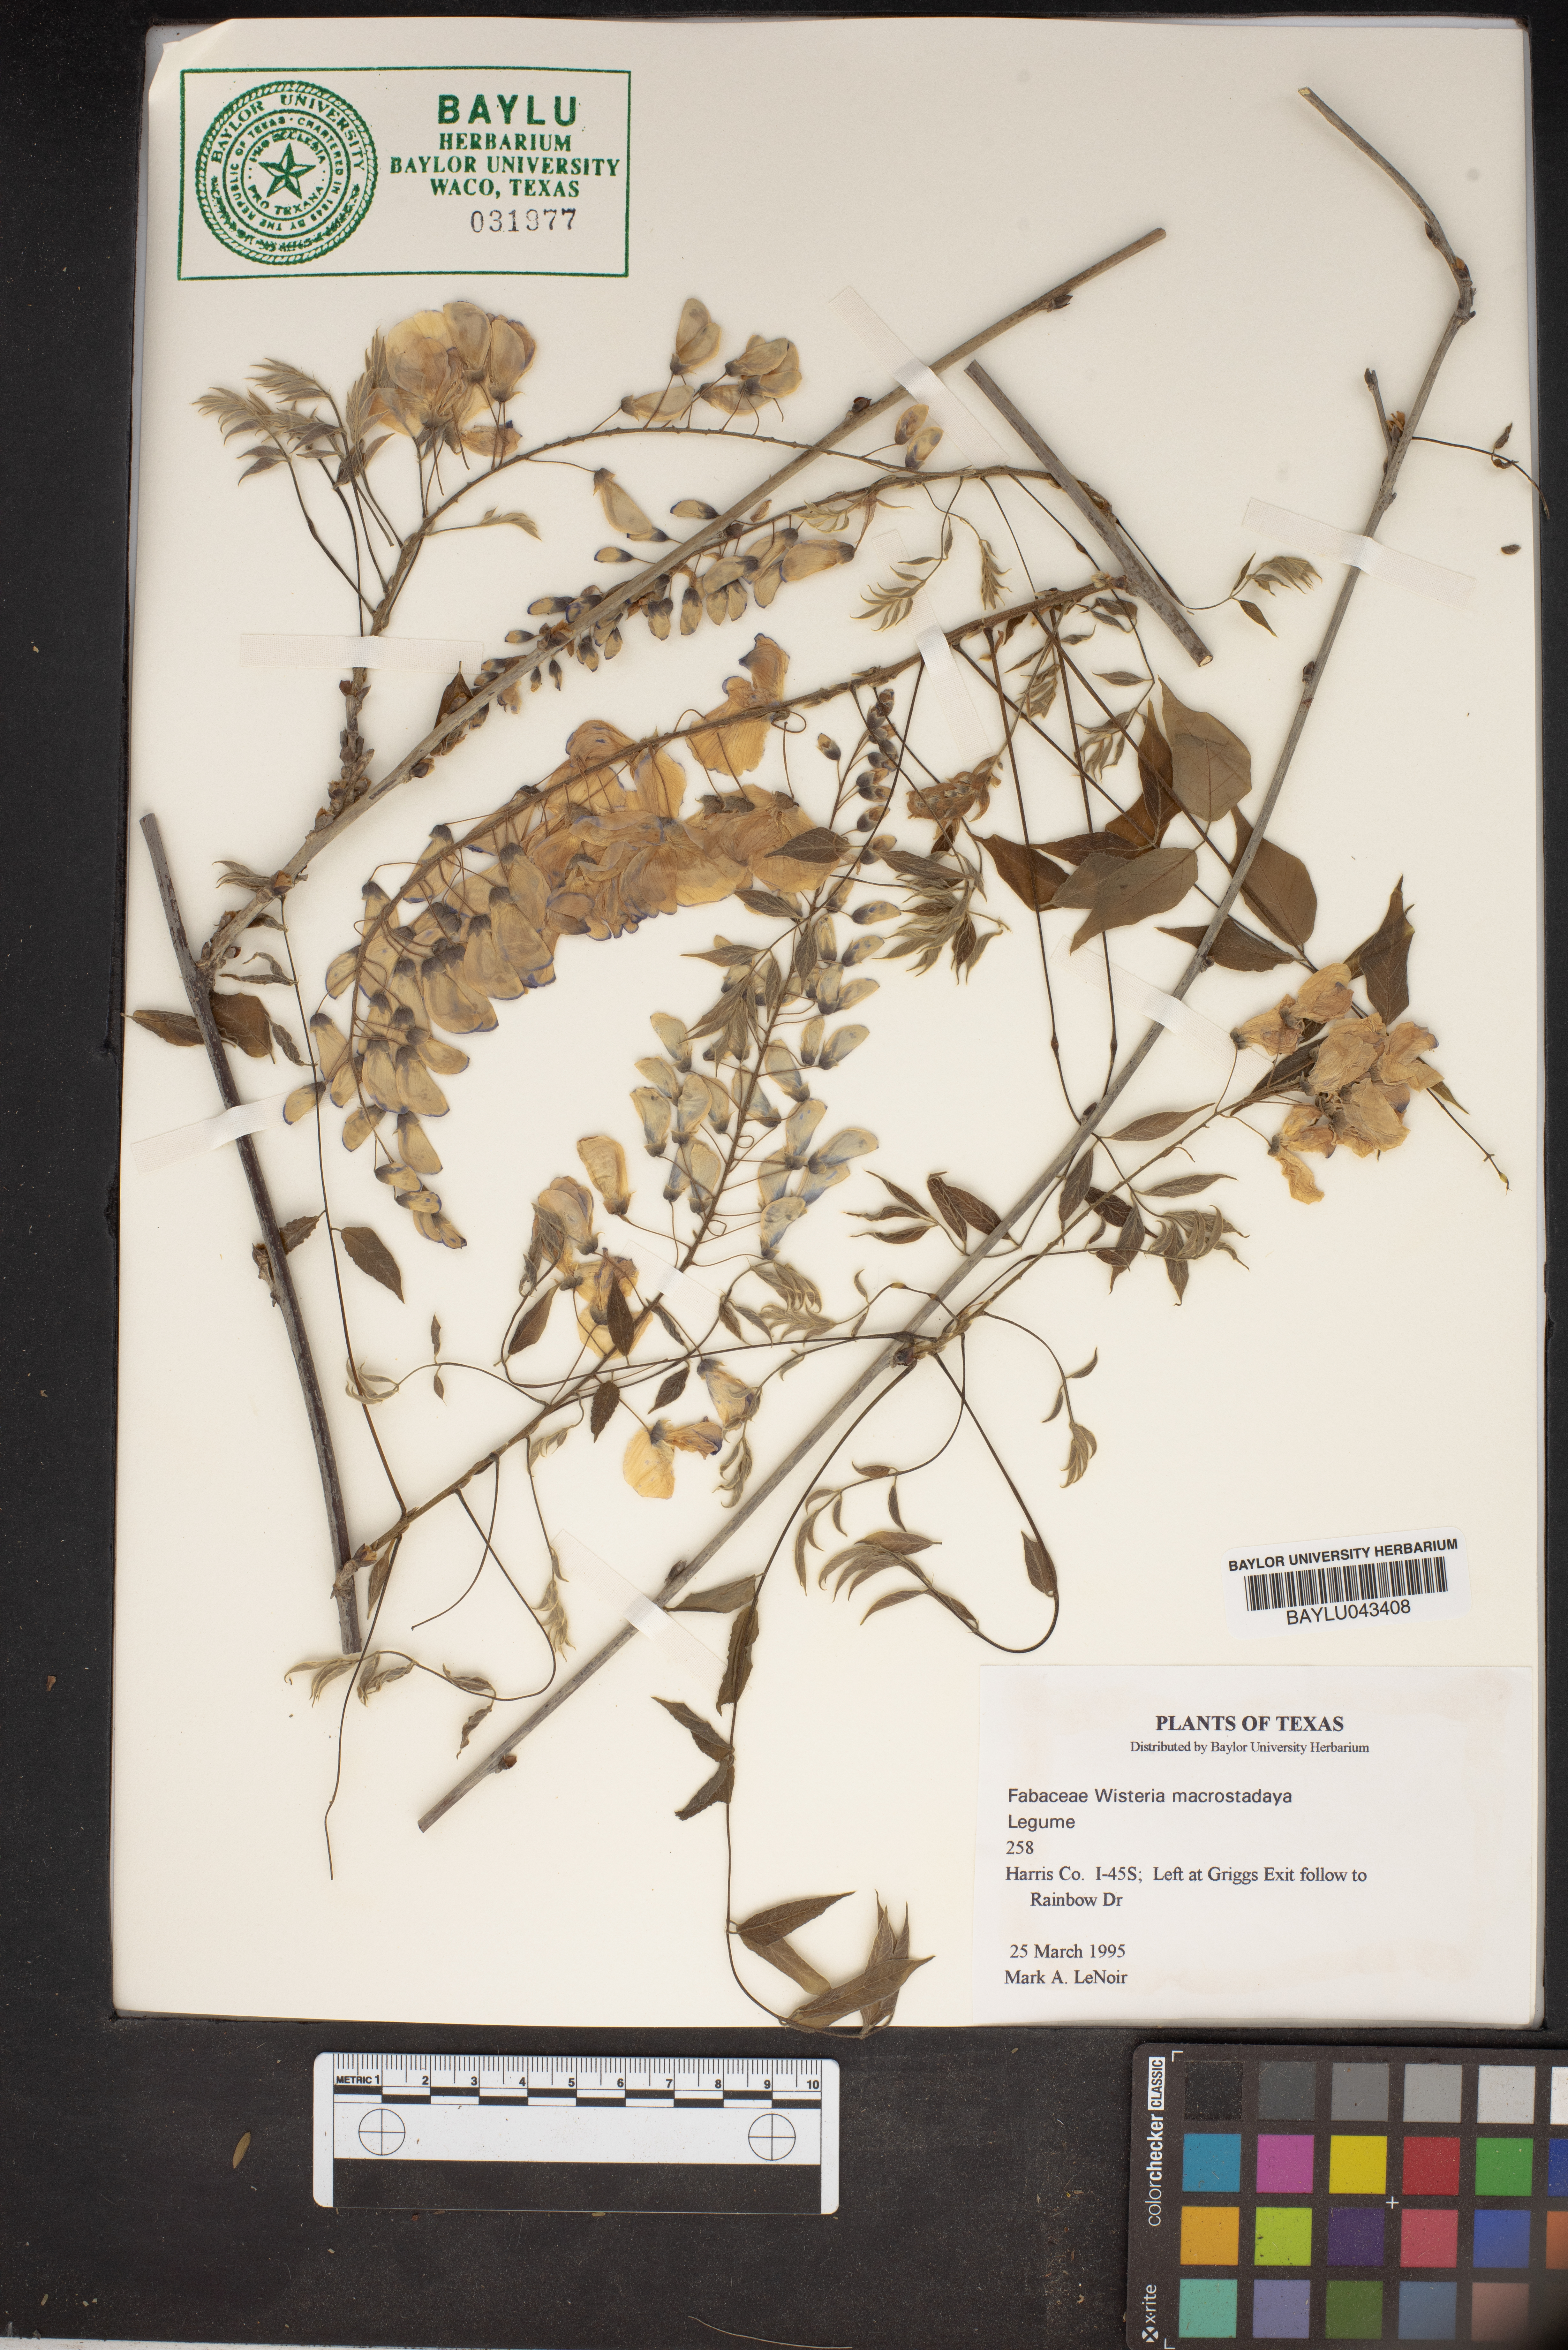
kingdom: Plantae
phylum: Tracheophyta
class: Magnoliopsida
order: Fabales
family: Fabaceae
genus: Wisteria
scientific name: Wisteria frutescens
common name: American wisteria
